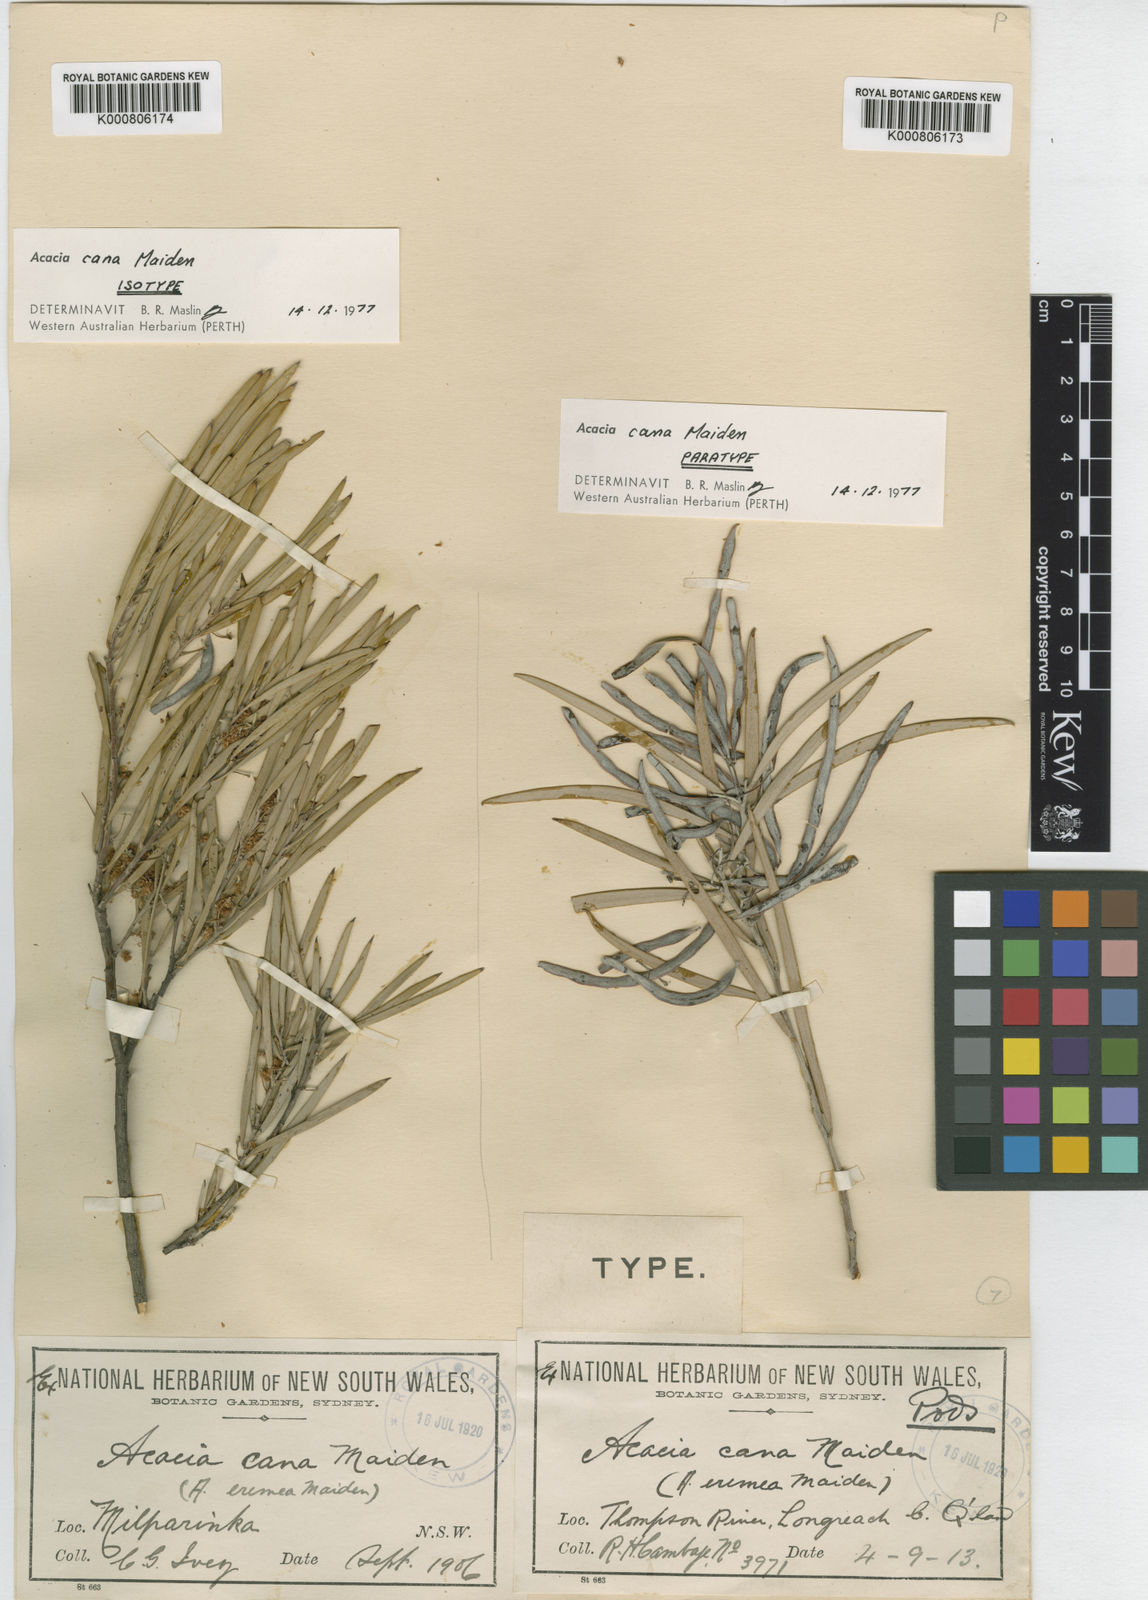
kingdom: Plantae
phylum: Tracheophyta
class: Magnoliopsida
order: Fabales
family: Fabaceae
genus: Acacia
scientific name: Acacia cana
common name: Cabbagetree
